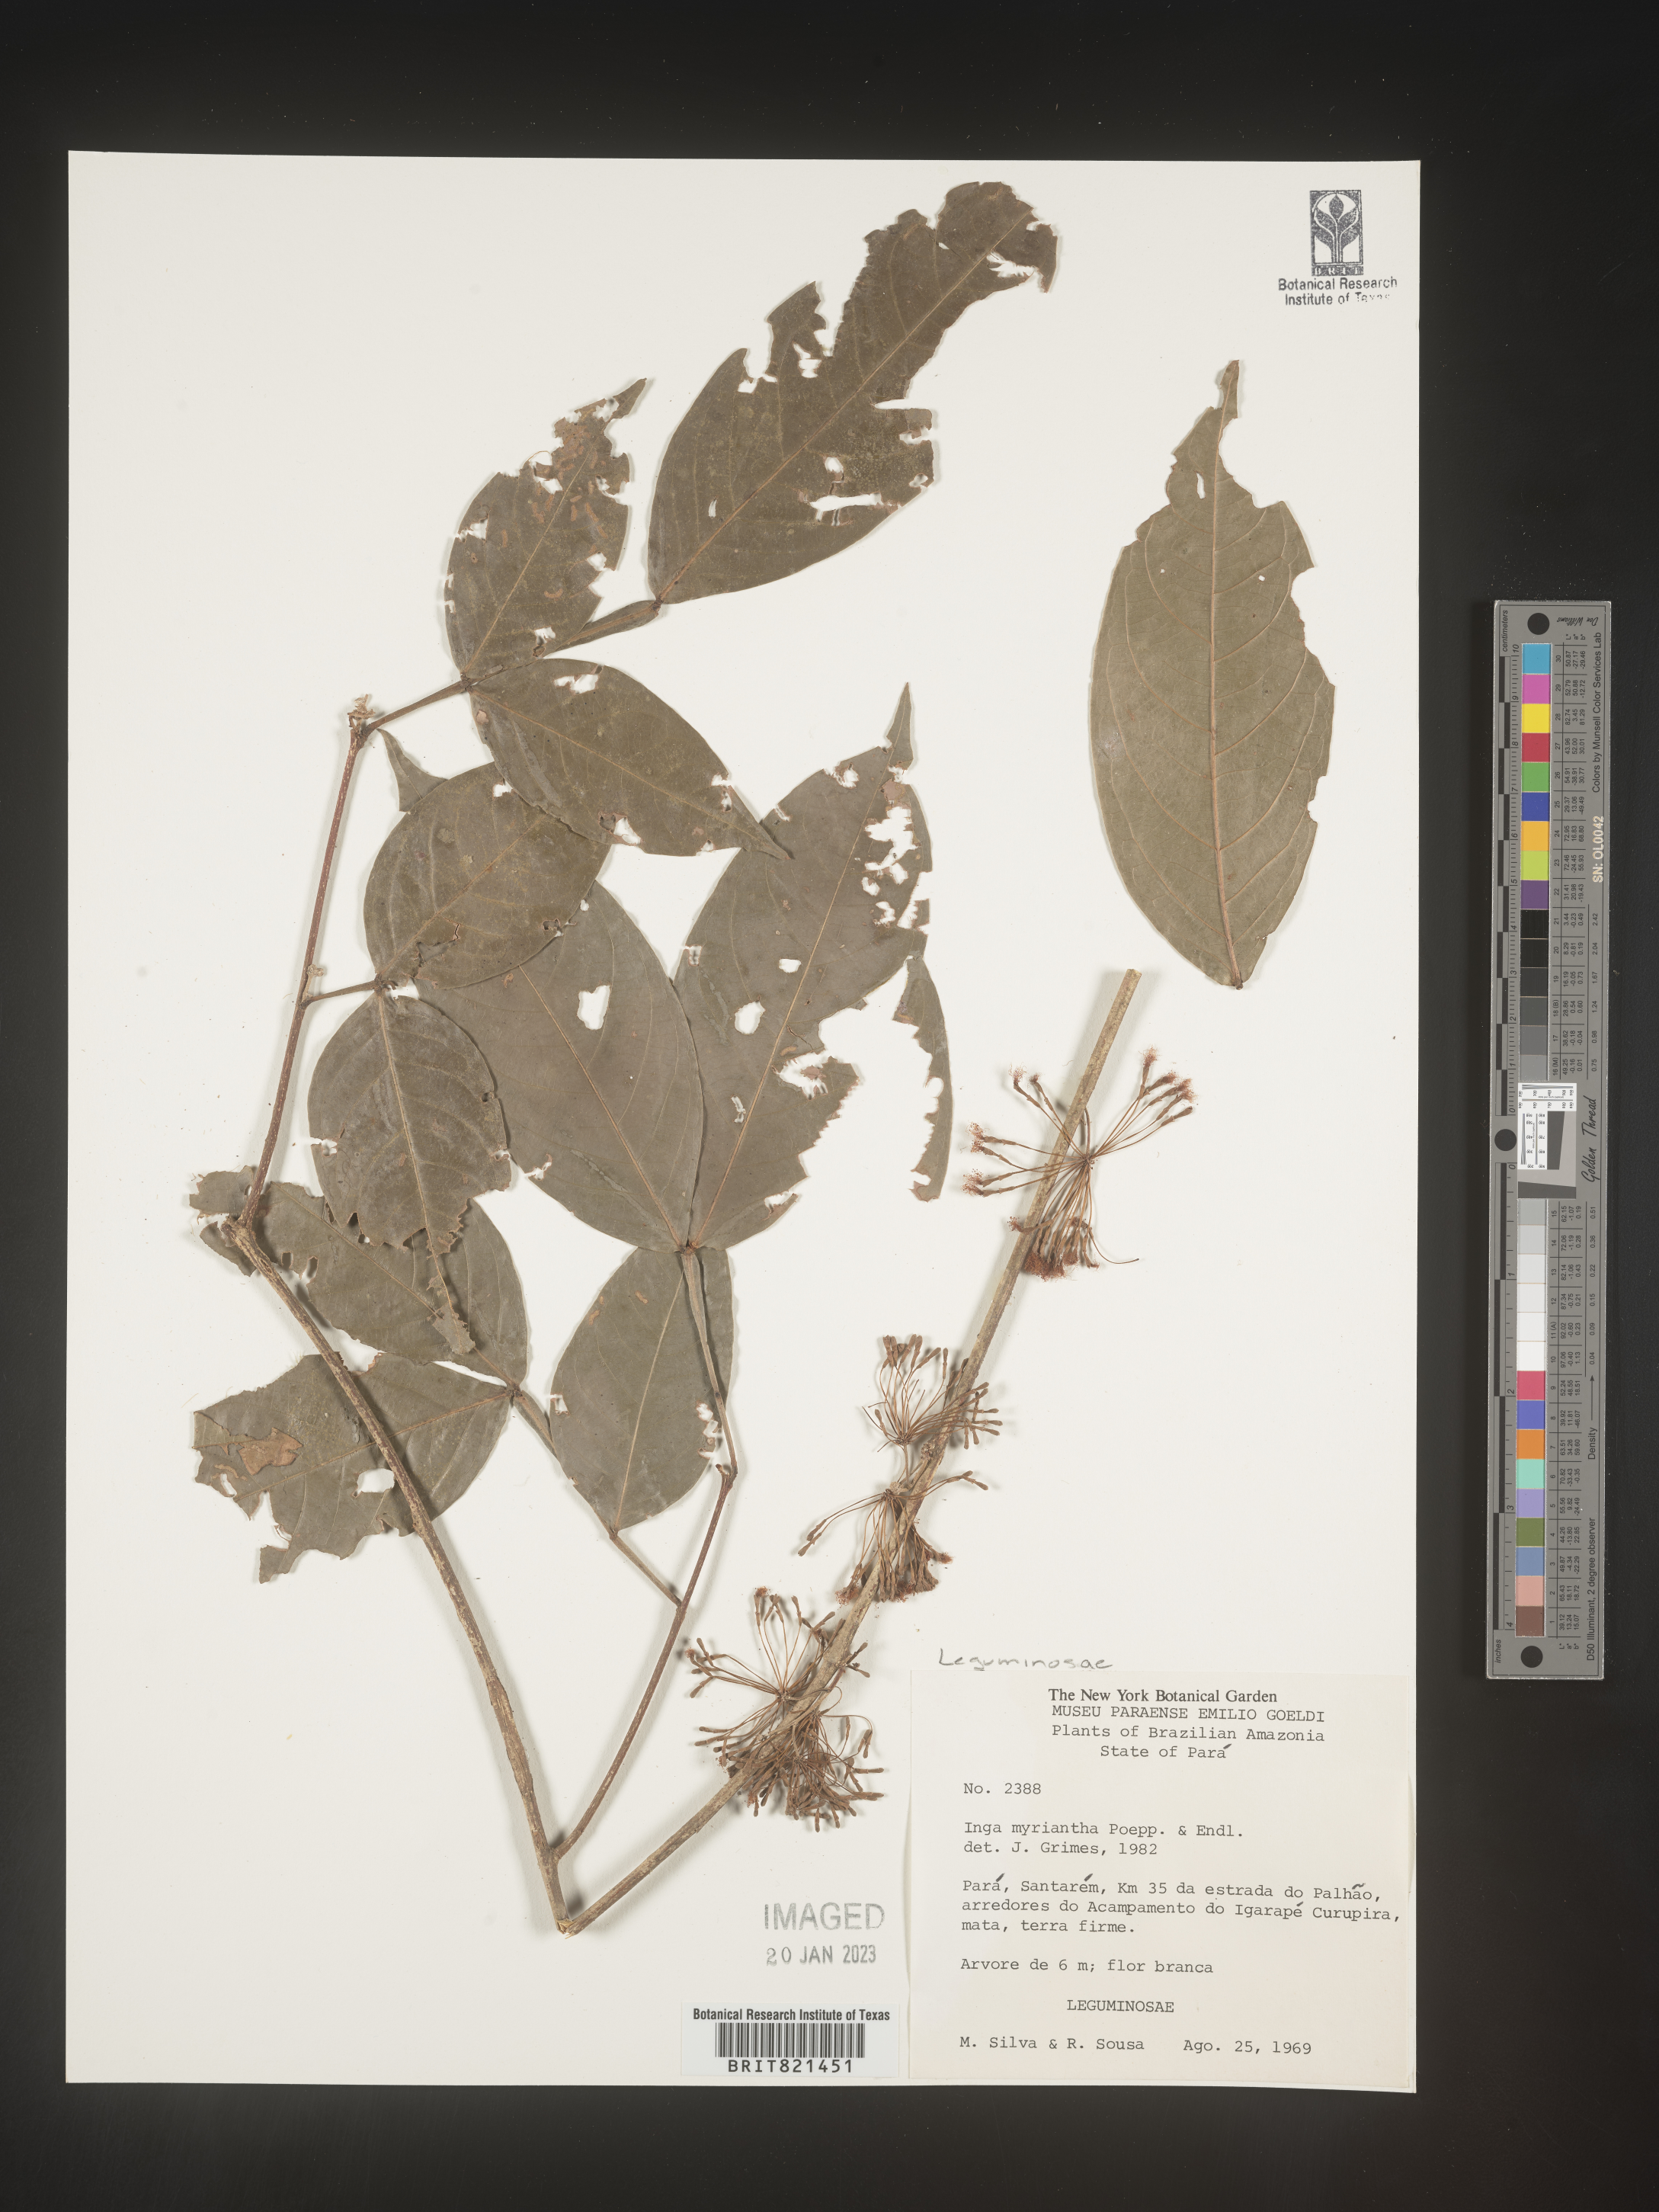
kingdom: Plantae
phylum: Tracheophyta
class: Magnoliopsida
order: Fabales
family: Fabaceae
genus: Inga
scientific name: Inga
